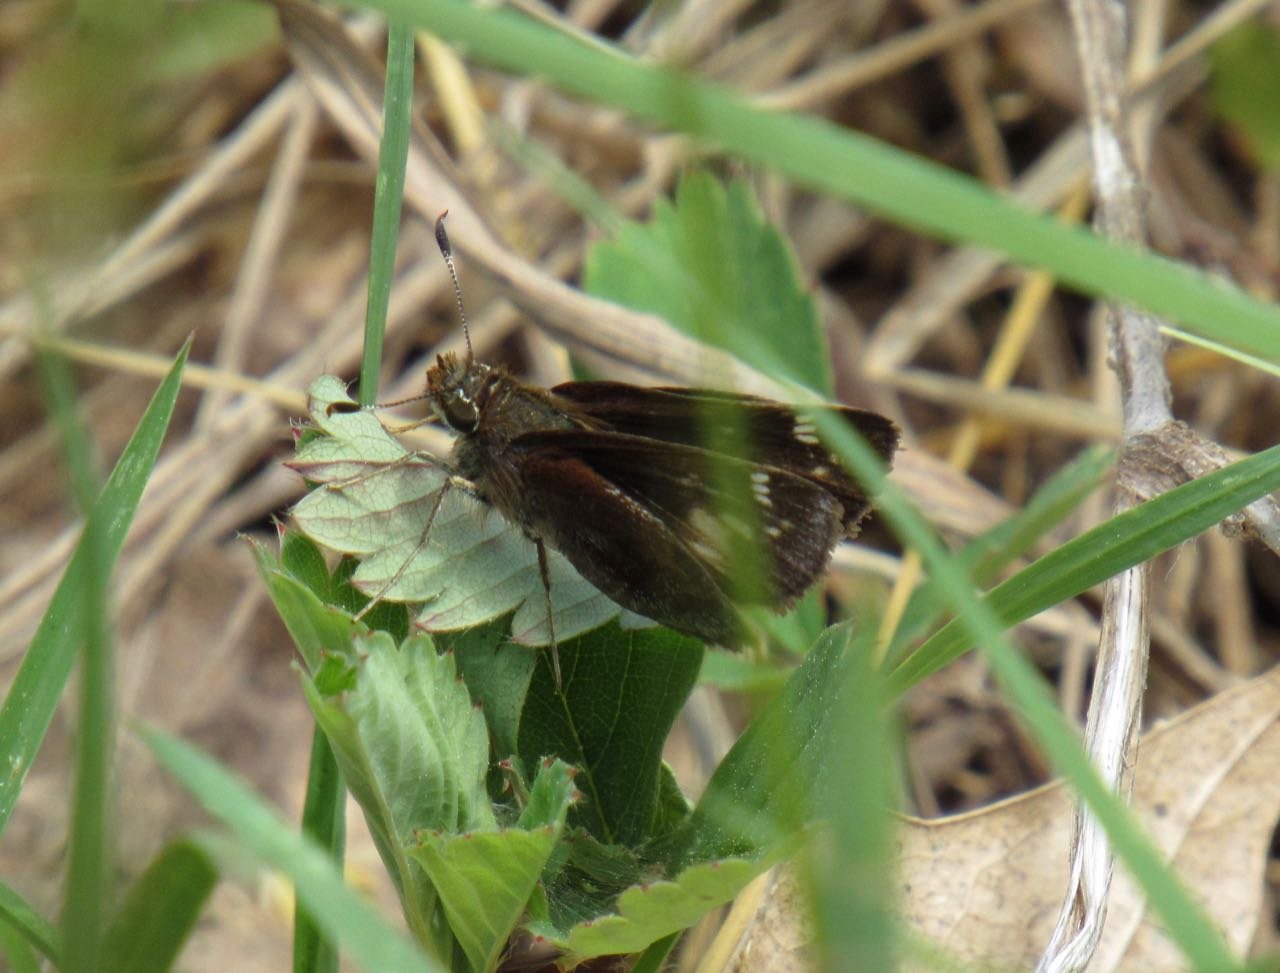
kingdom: Animalia
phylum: Arthropoda
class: Insecta
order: Lepidoptera
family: Hesperiidae
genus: Lon
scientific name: Lon hobomok
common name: Hobomok Skipper
